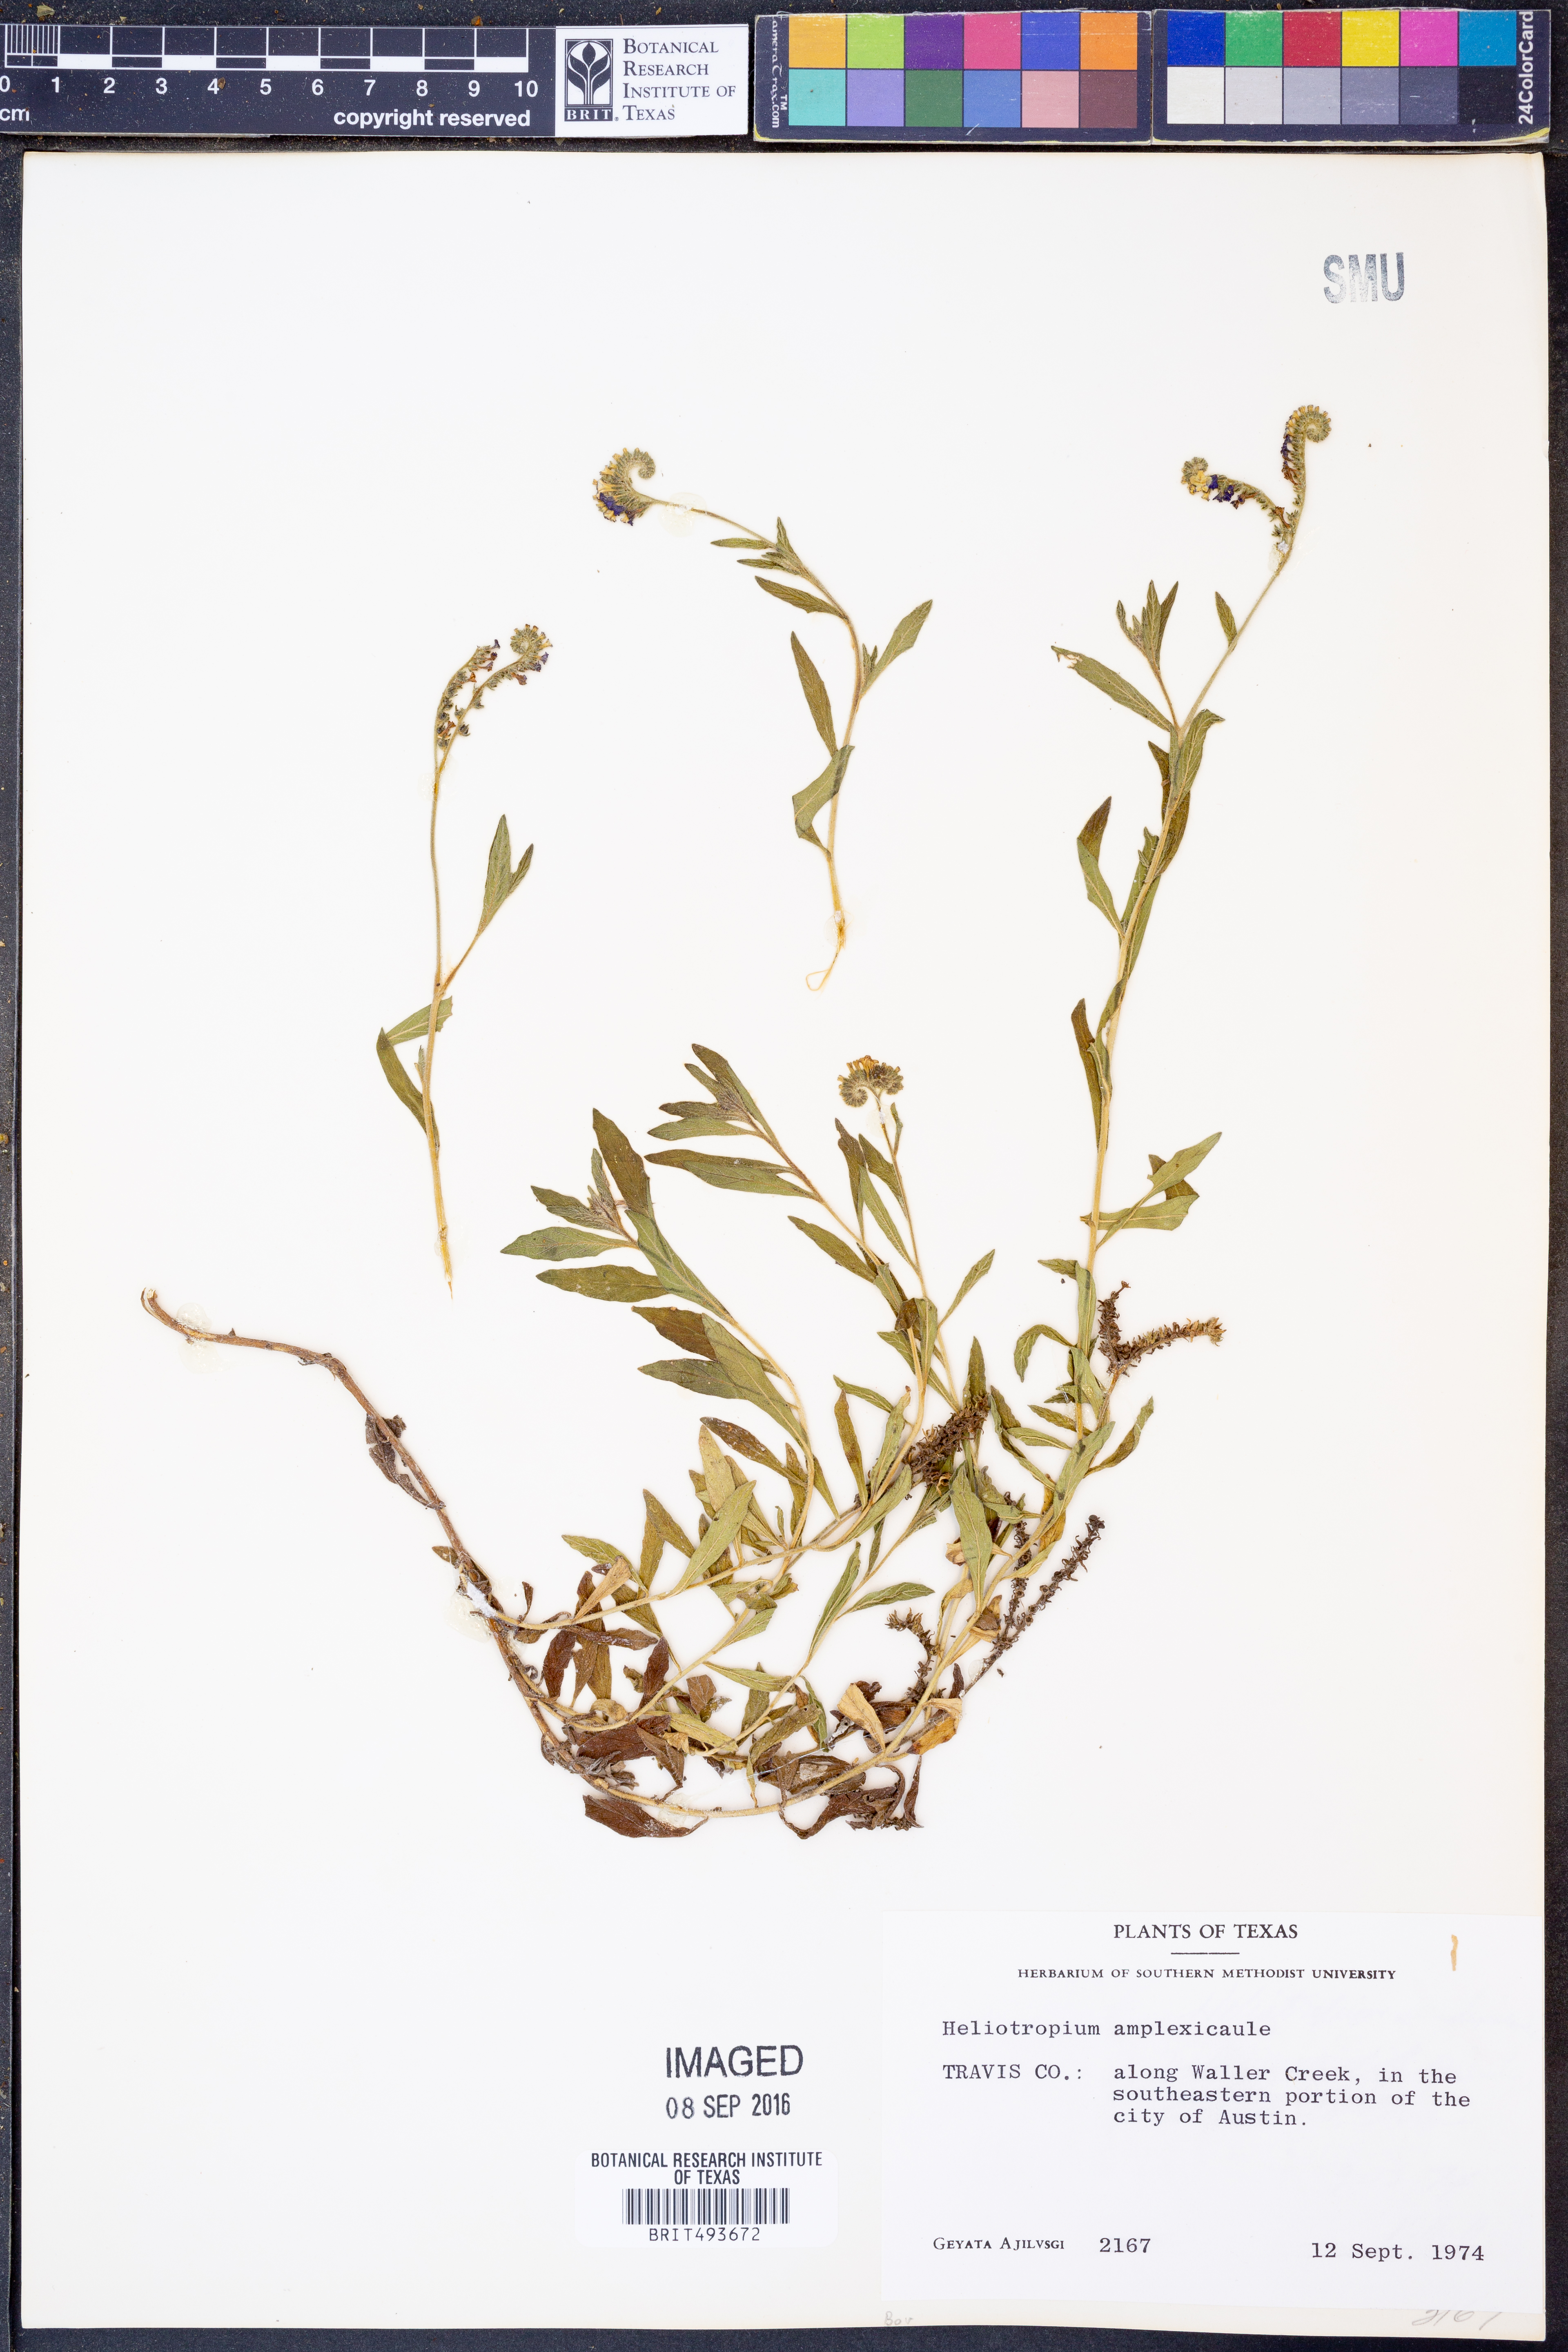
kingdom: Plantae
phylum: Tracheophyta
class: Magnoliopsida
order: Boraginales
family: Heliotropiaceae
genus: Heliotropium
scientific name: Heliotropium amplexicaule
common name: Clasping heliotrope
